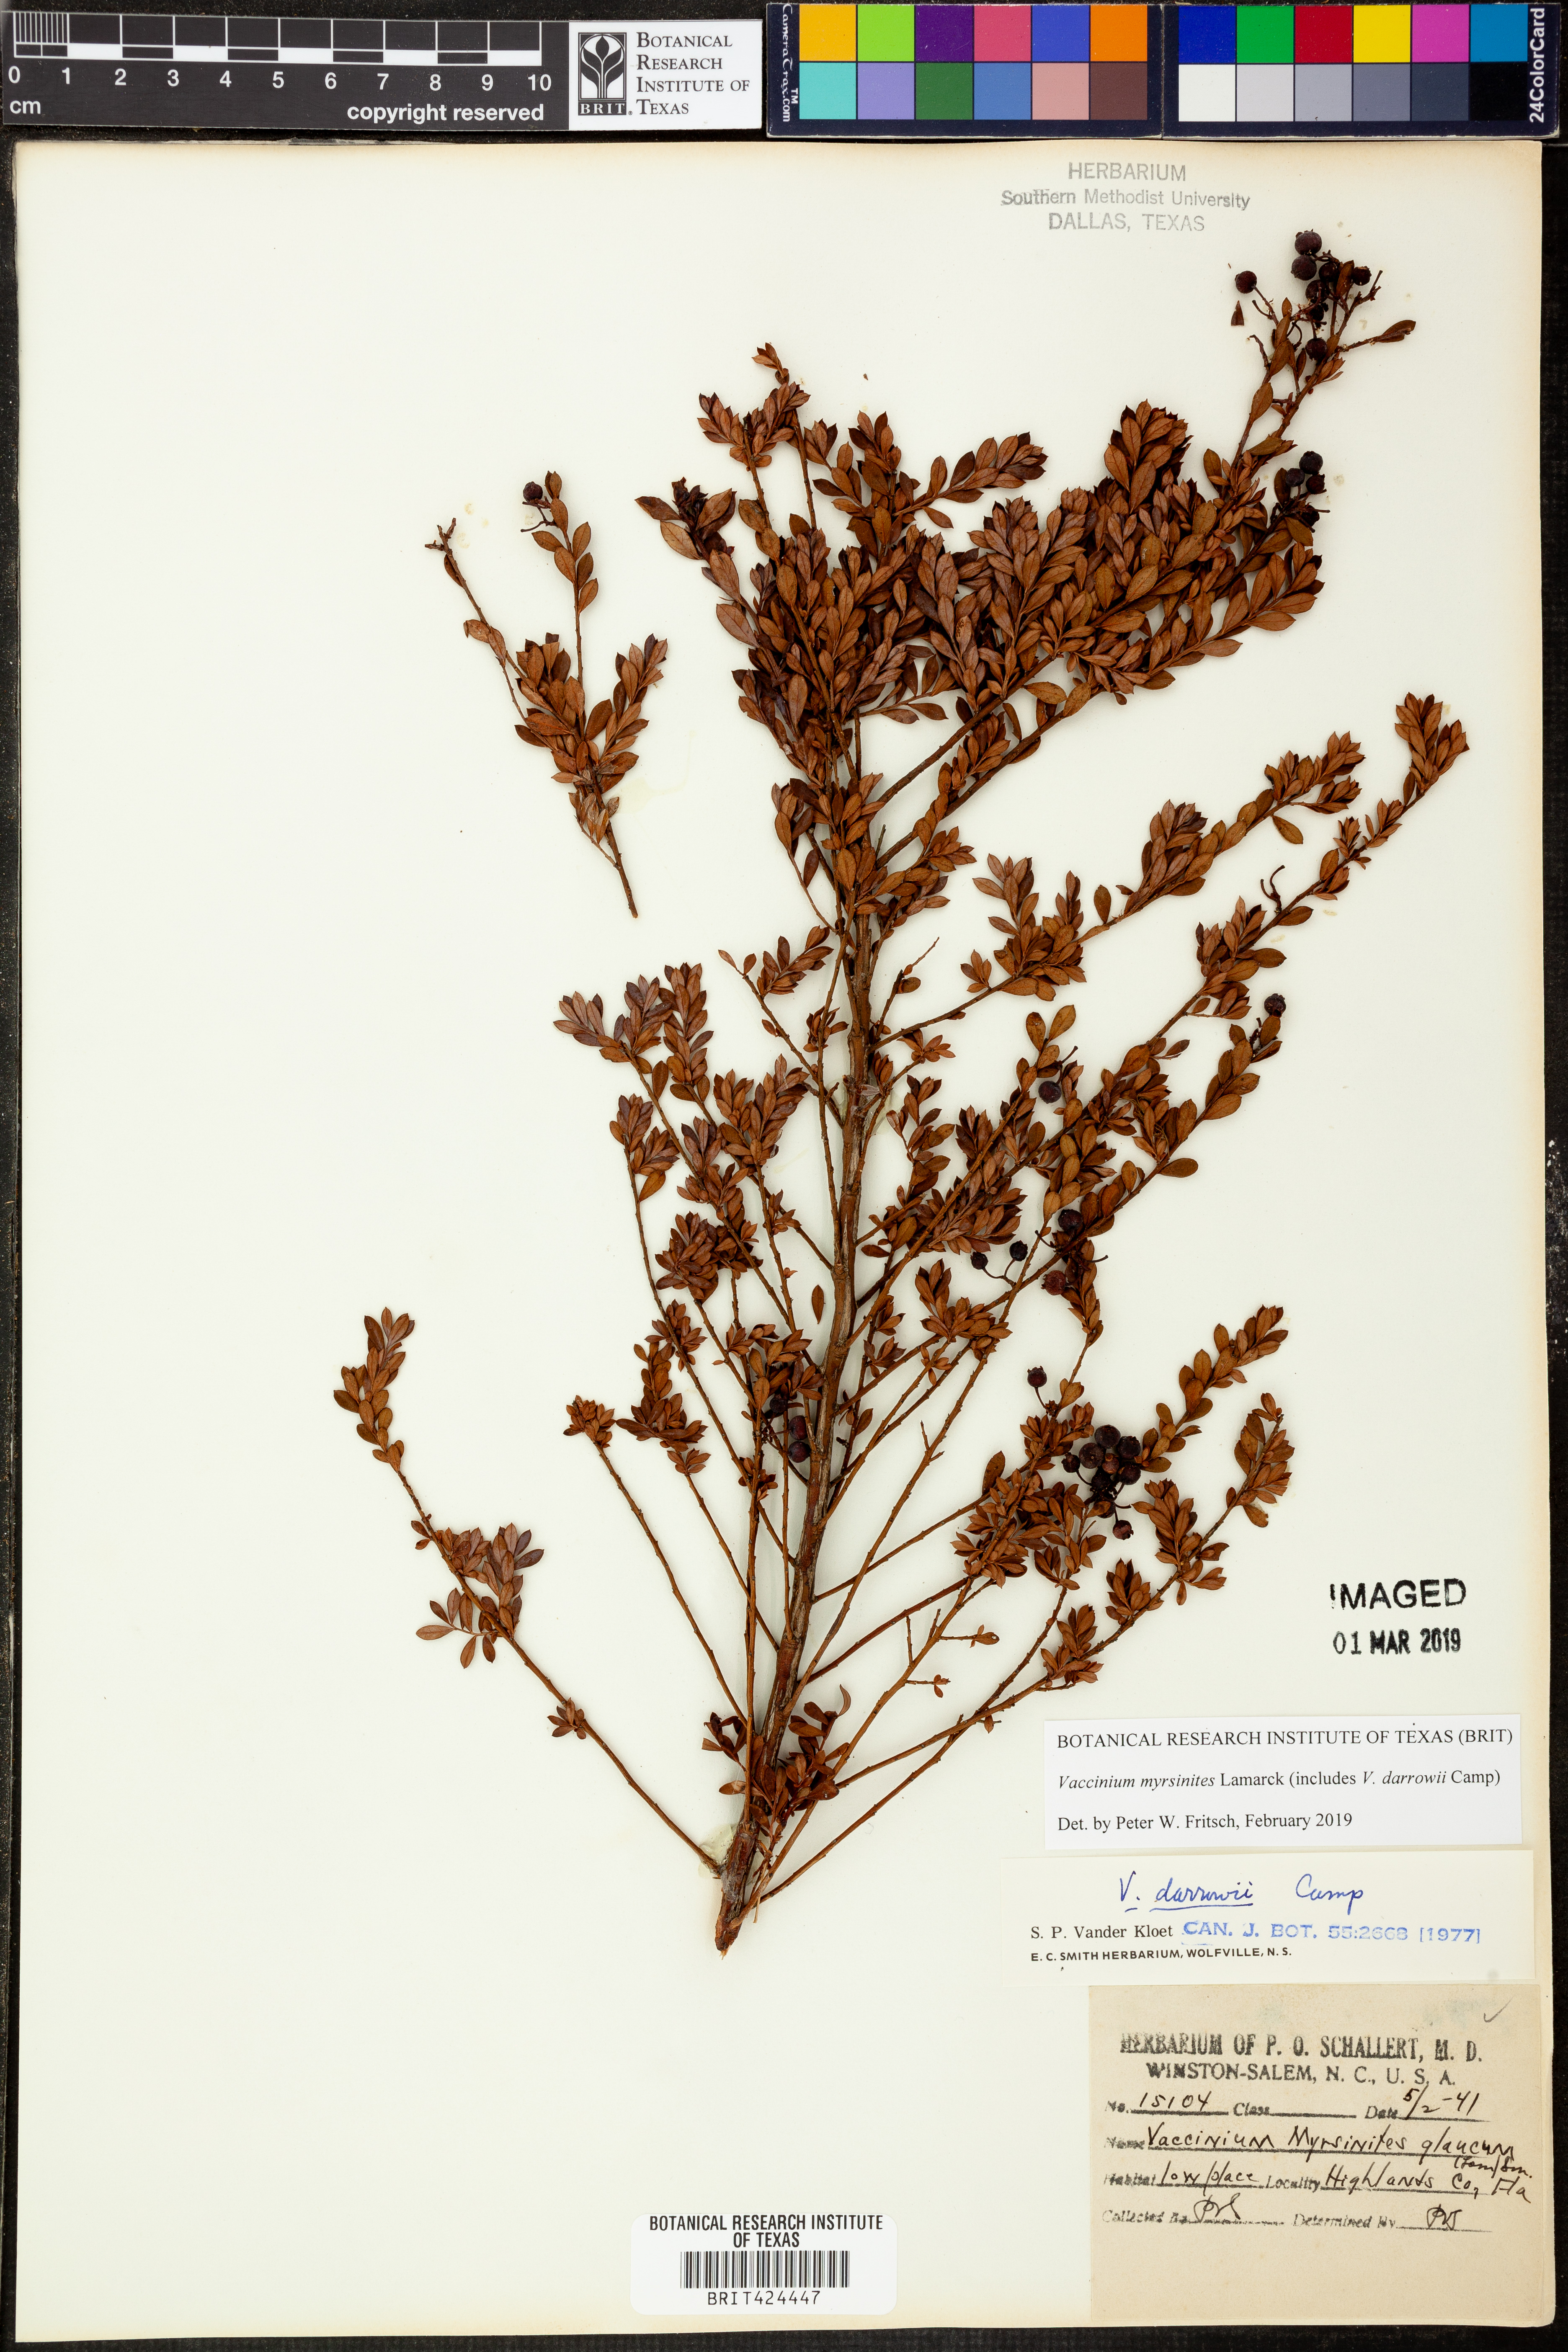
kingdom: Plantae
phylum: Tracheophyta
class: Magnoliopsida
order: Ericales
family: Ericaceae
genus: Vaccinium
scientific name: Vaccinium myrsinites
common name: Evergreen blueberry
